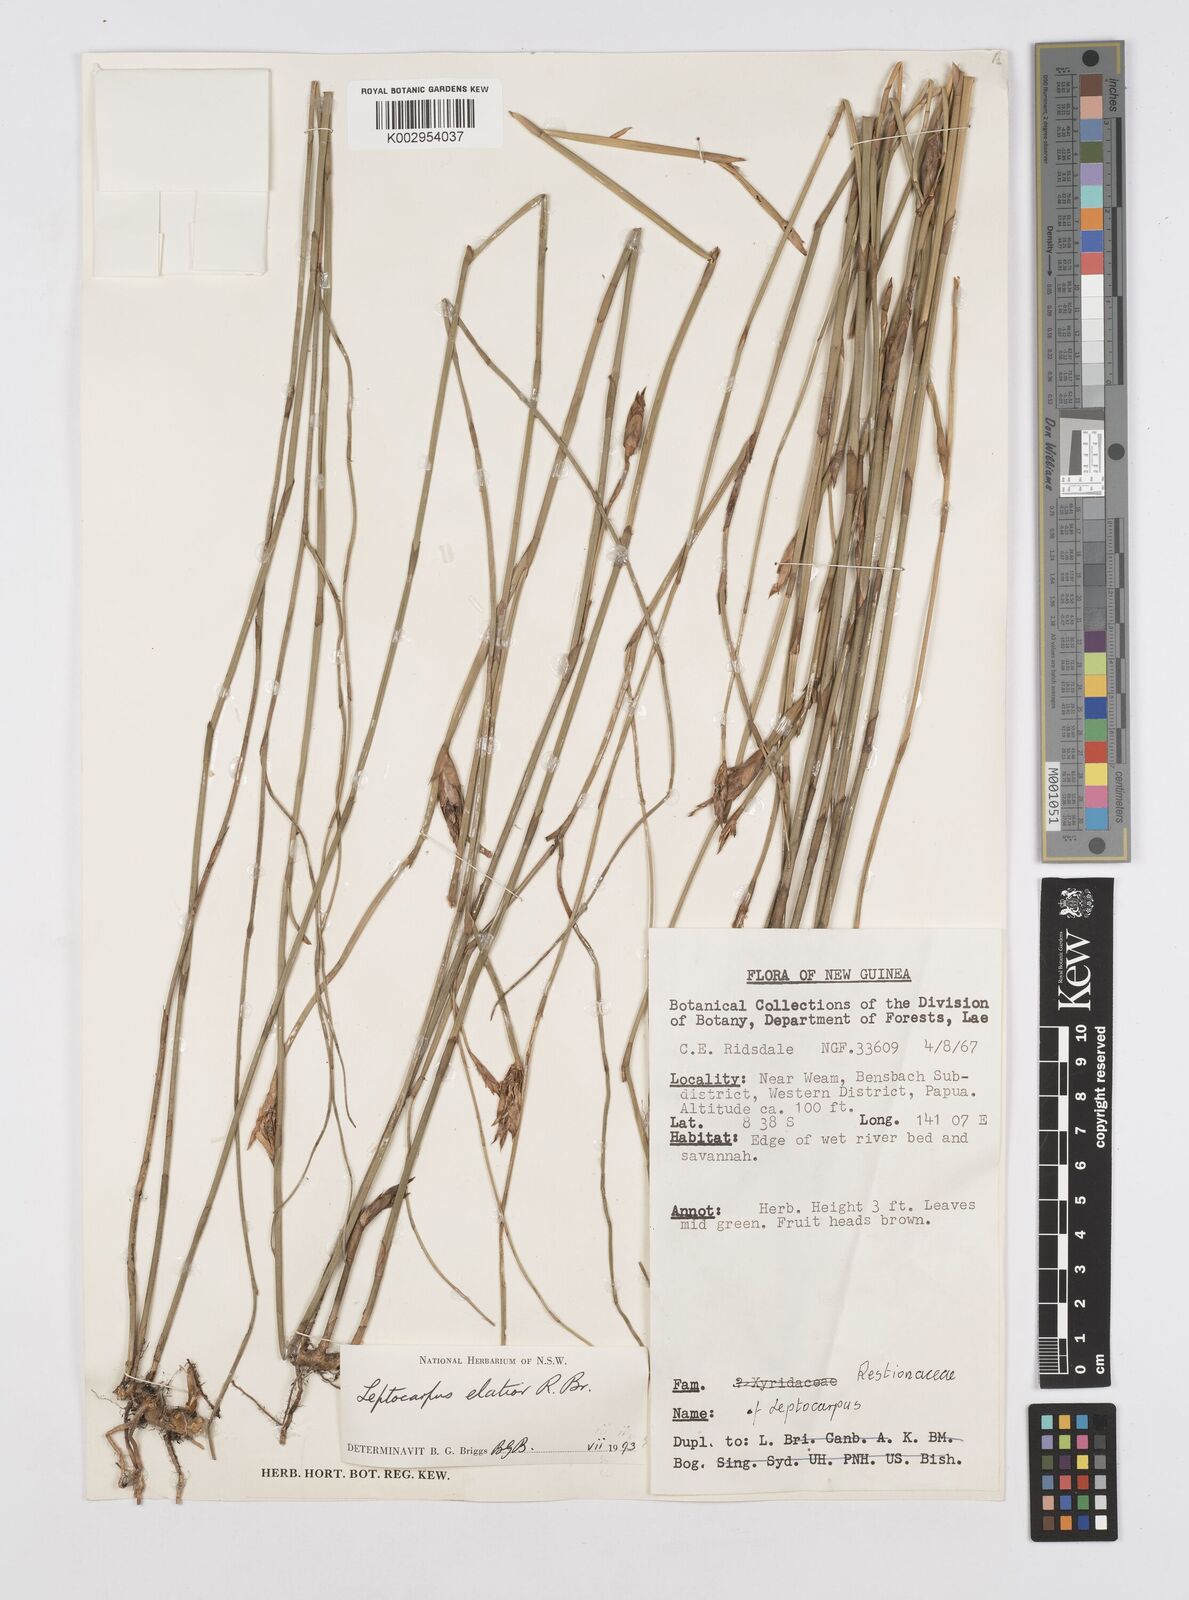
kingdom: Plantae
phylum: Tracheophyta
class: Liliopsida
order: Poales
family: Restionaceae
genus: Dapsilanthus
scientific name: Dapsilanthus elatior
